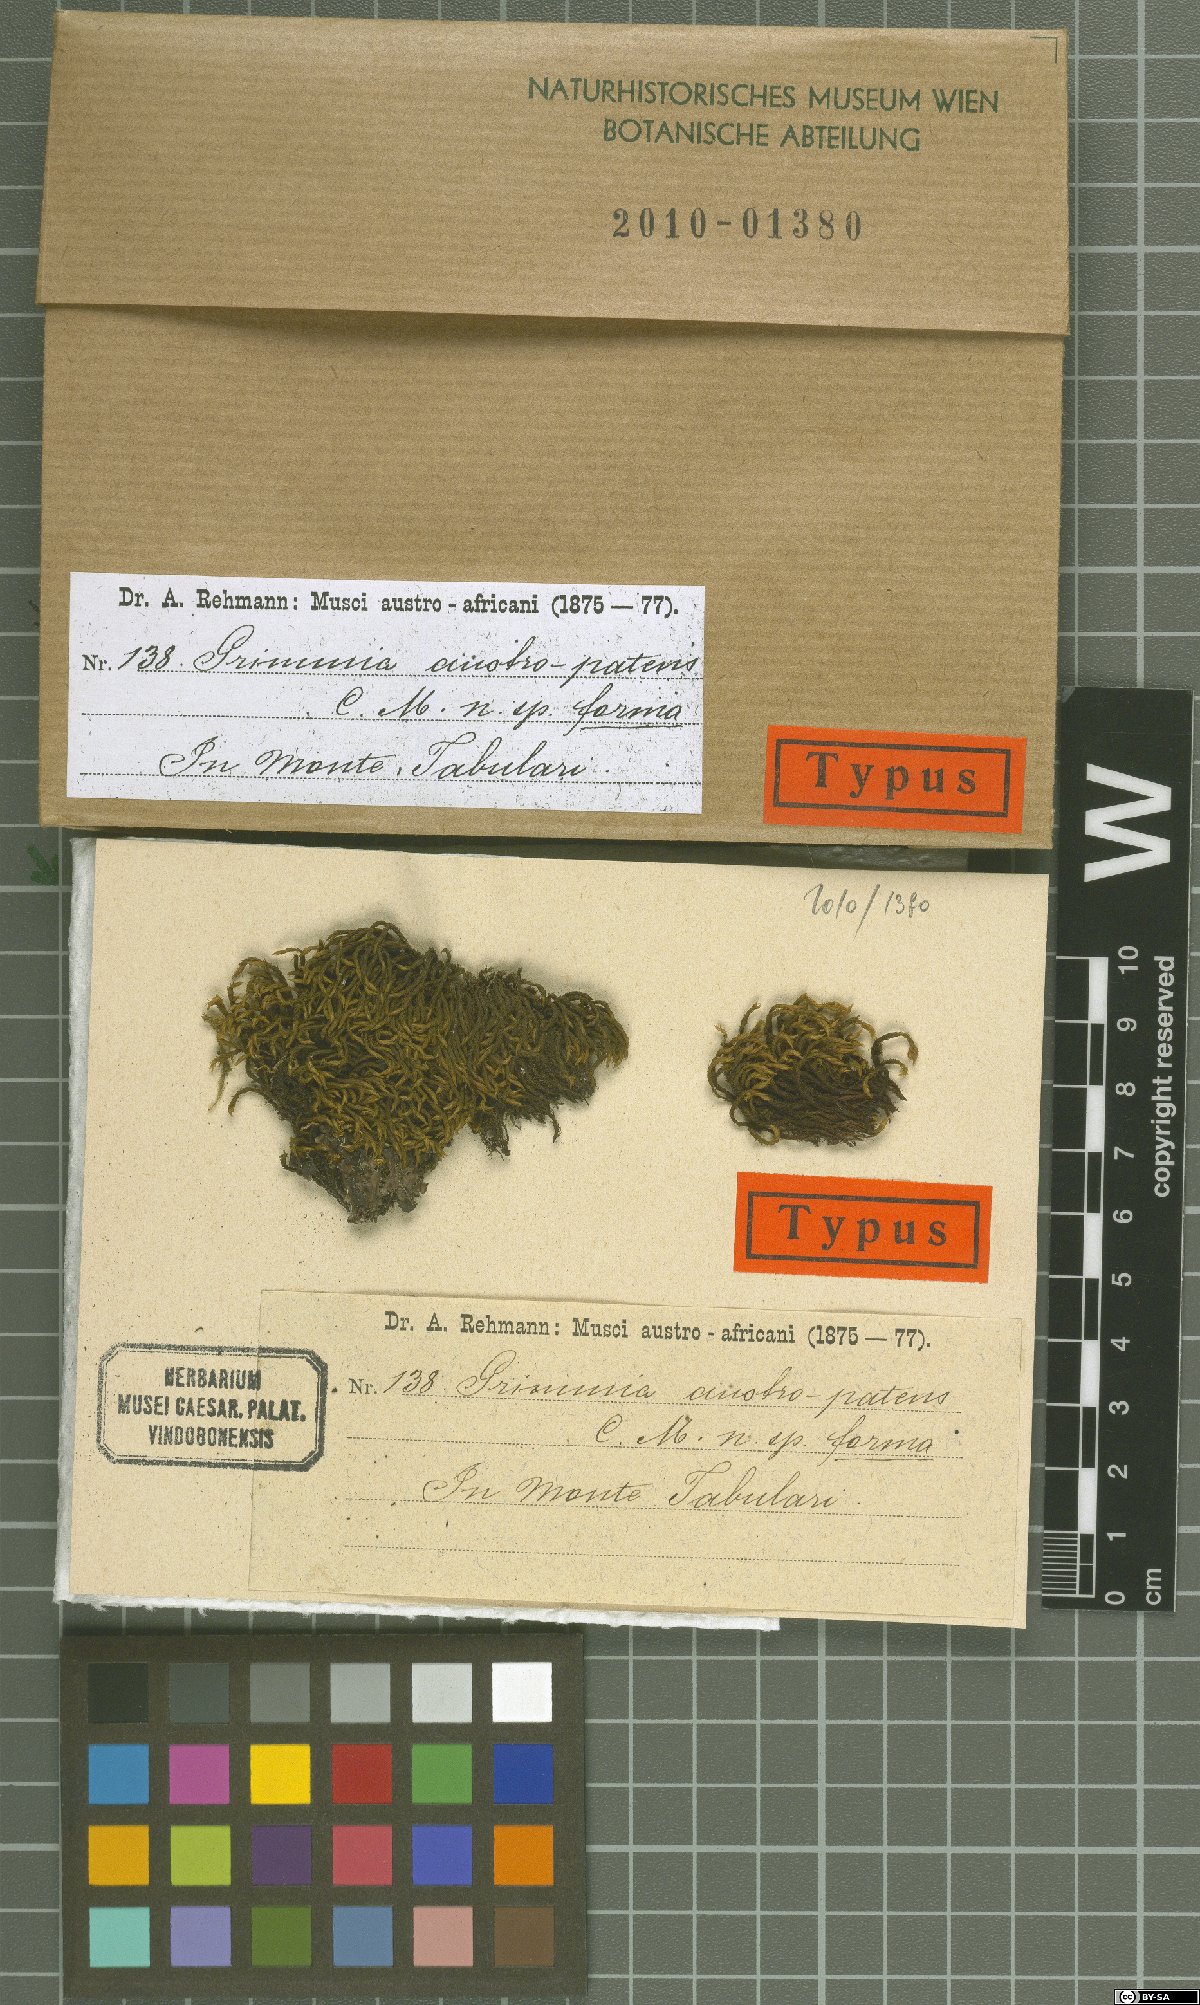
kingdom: Plantae
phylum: Bryophyta
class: Bryopsida
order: Grimmiales
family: Grimmiaceae
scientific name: Grimmiaceae
